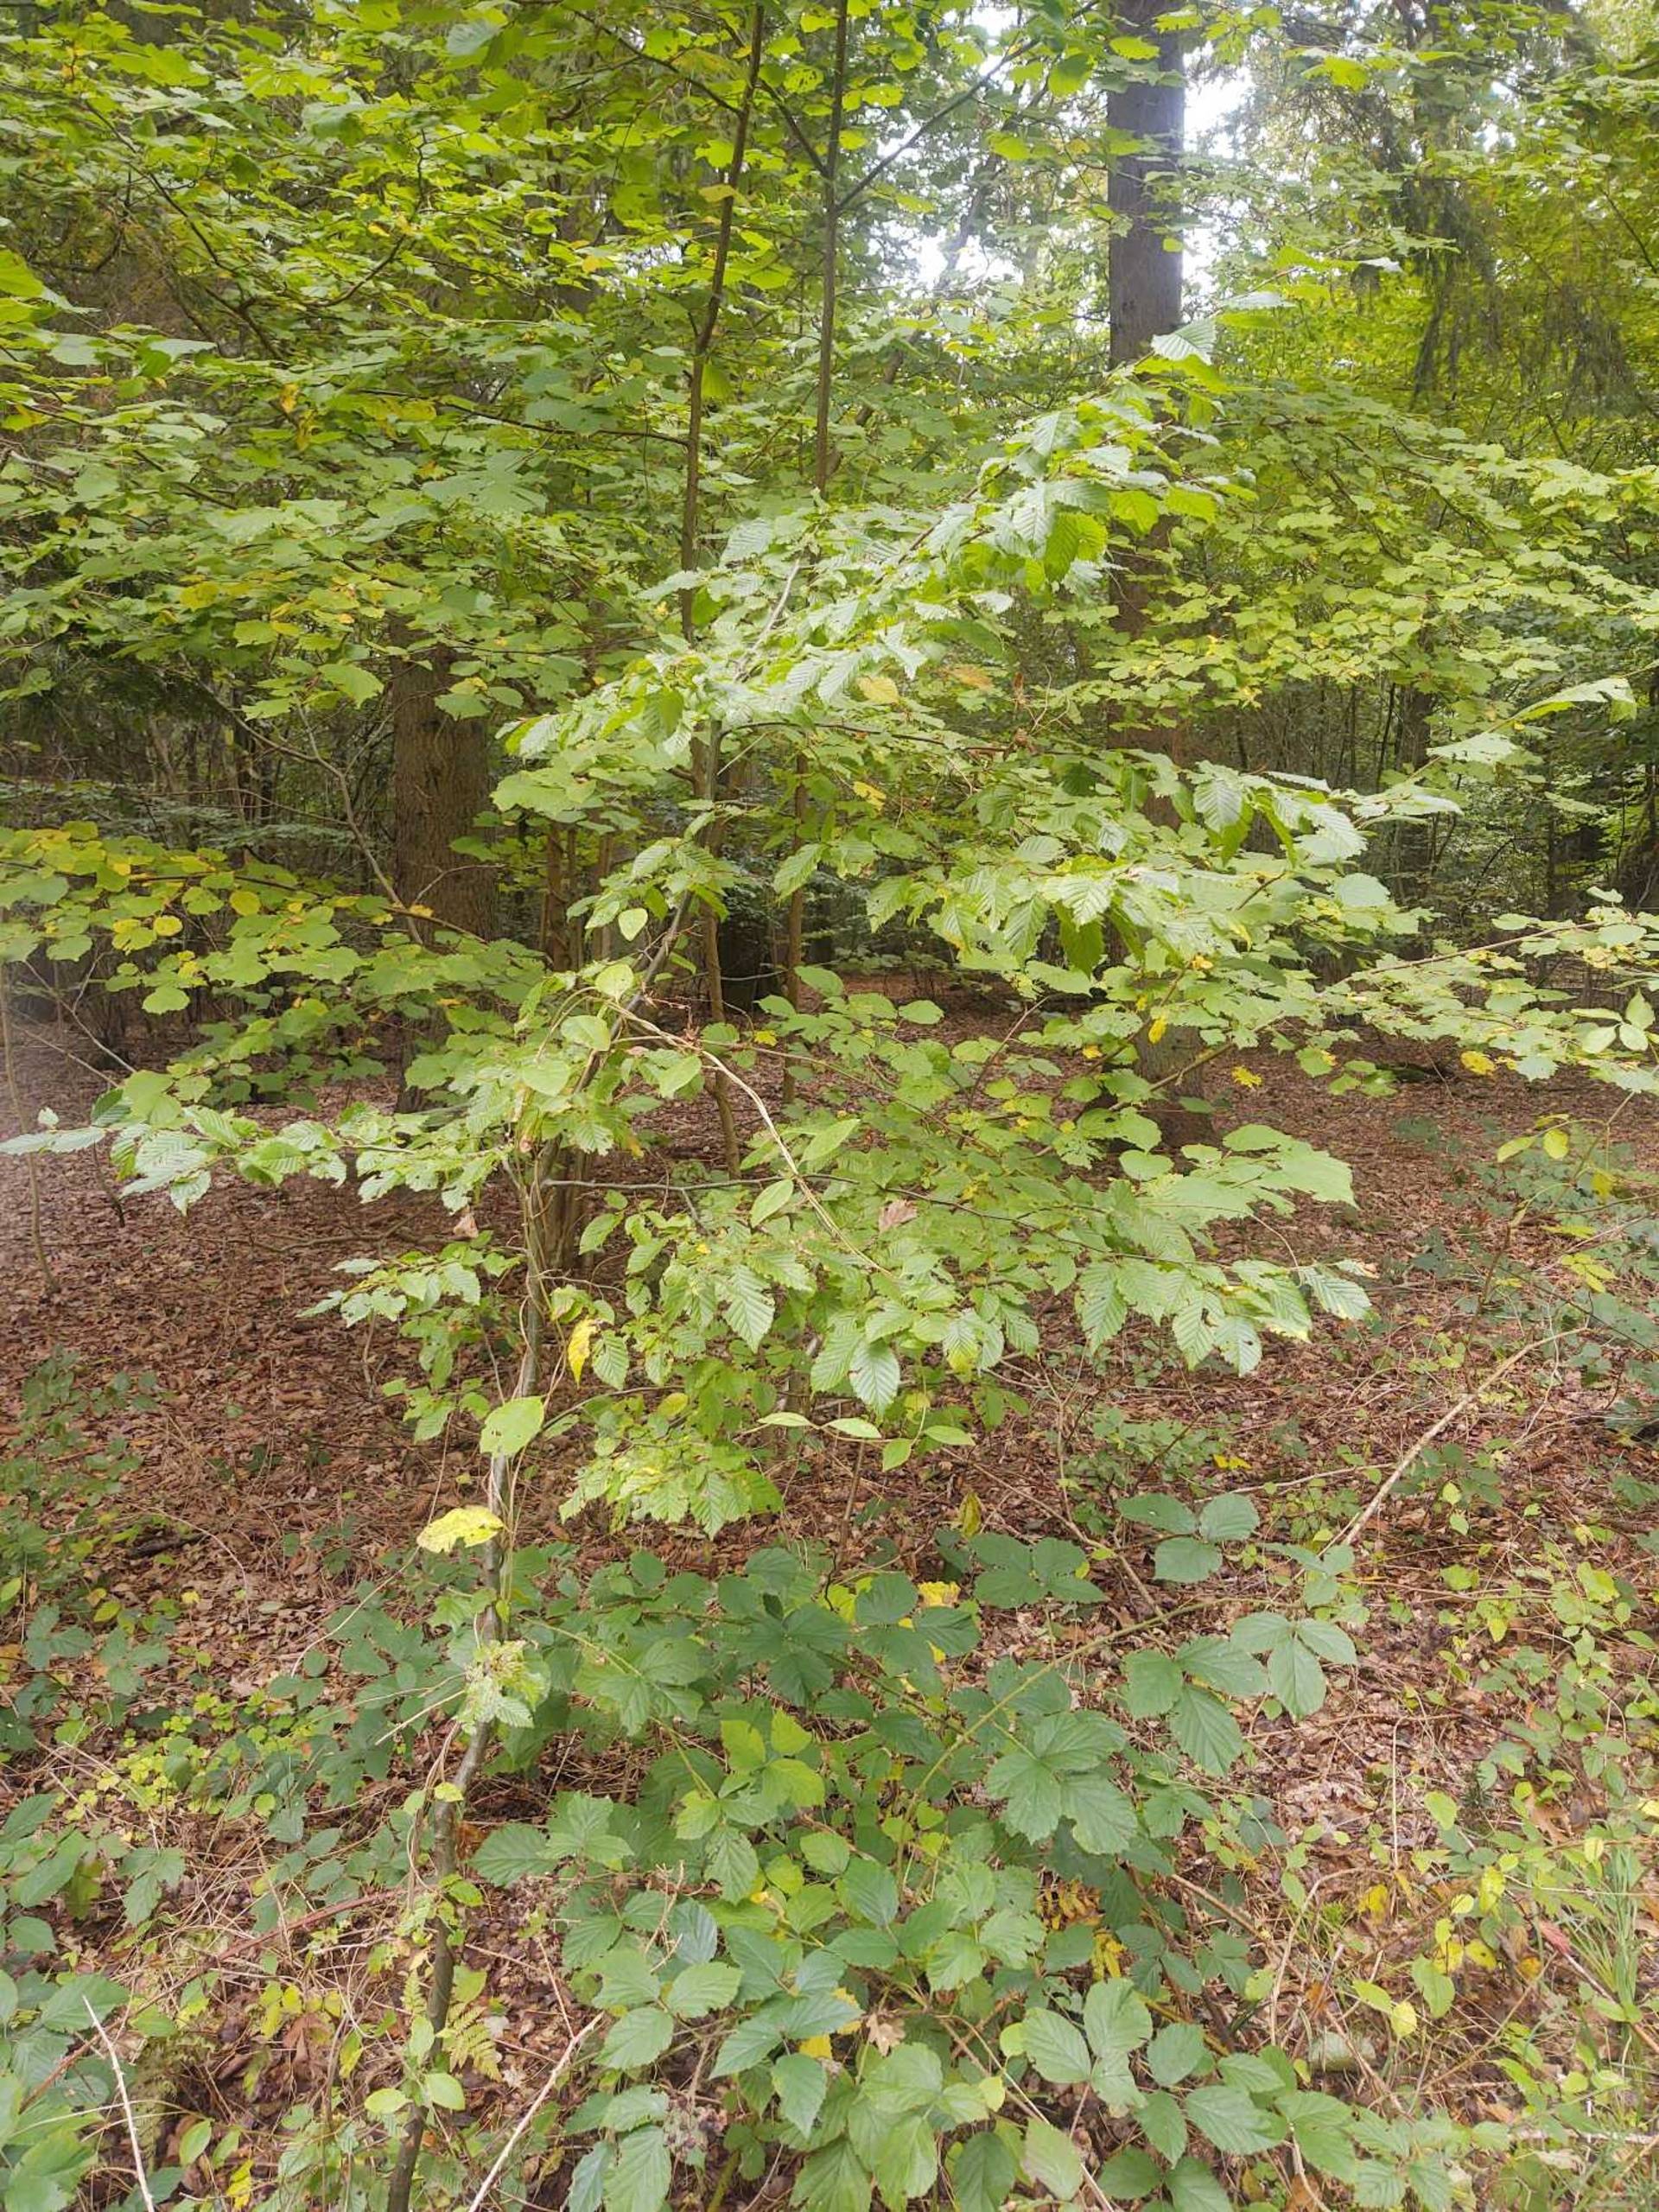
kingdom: Plantae
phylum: Tracheophyta
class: Magnoliopsida
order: Fagales
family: Betulaceae
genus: Carpinus
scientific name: Carpinus betulus
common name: Avnbøg
